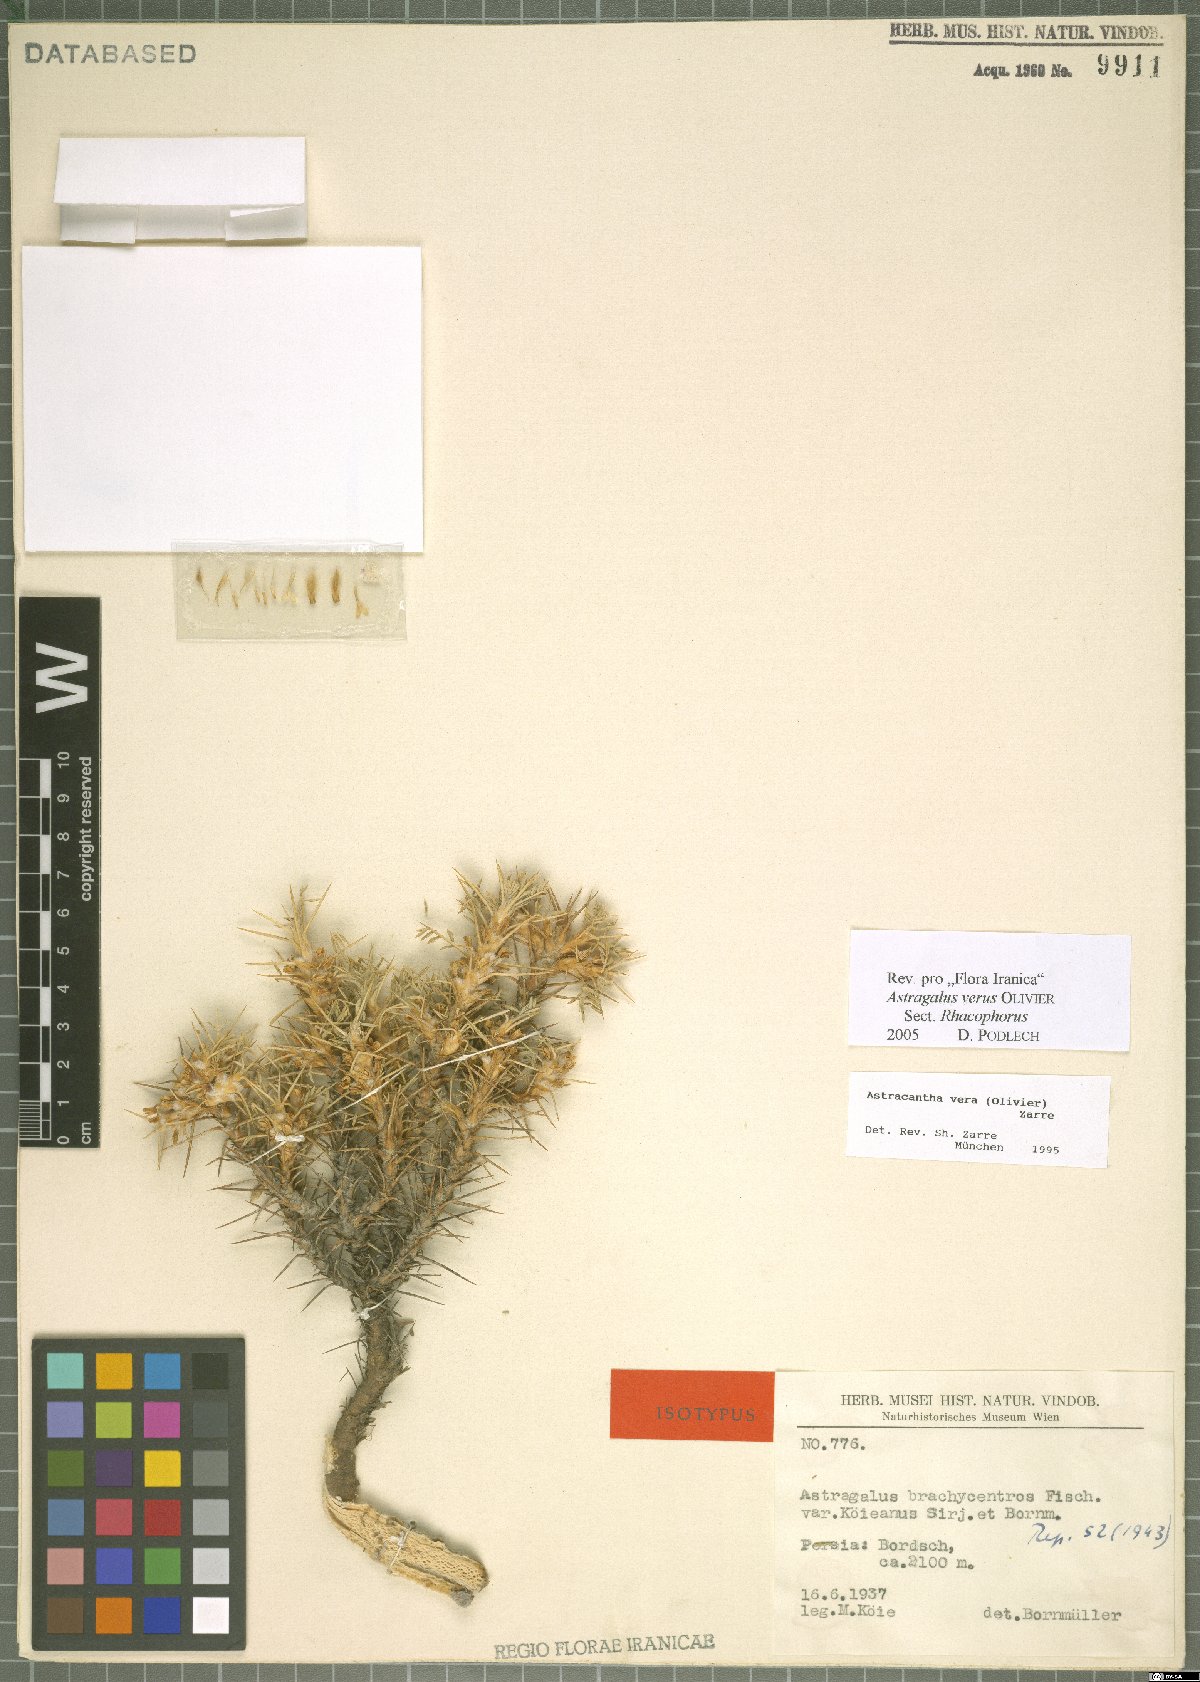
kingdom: Plantae
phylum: Tracheophyta
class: Magnoliopsida
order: Fabales
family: Fabaceae
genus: Astragalus
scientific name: Astragalus verus
